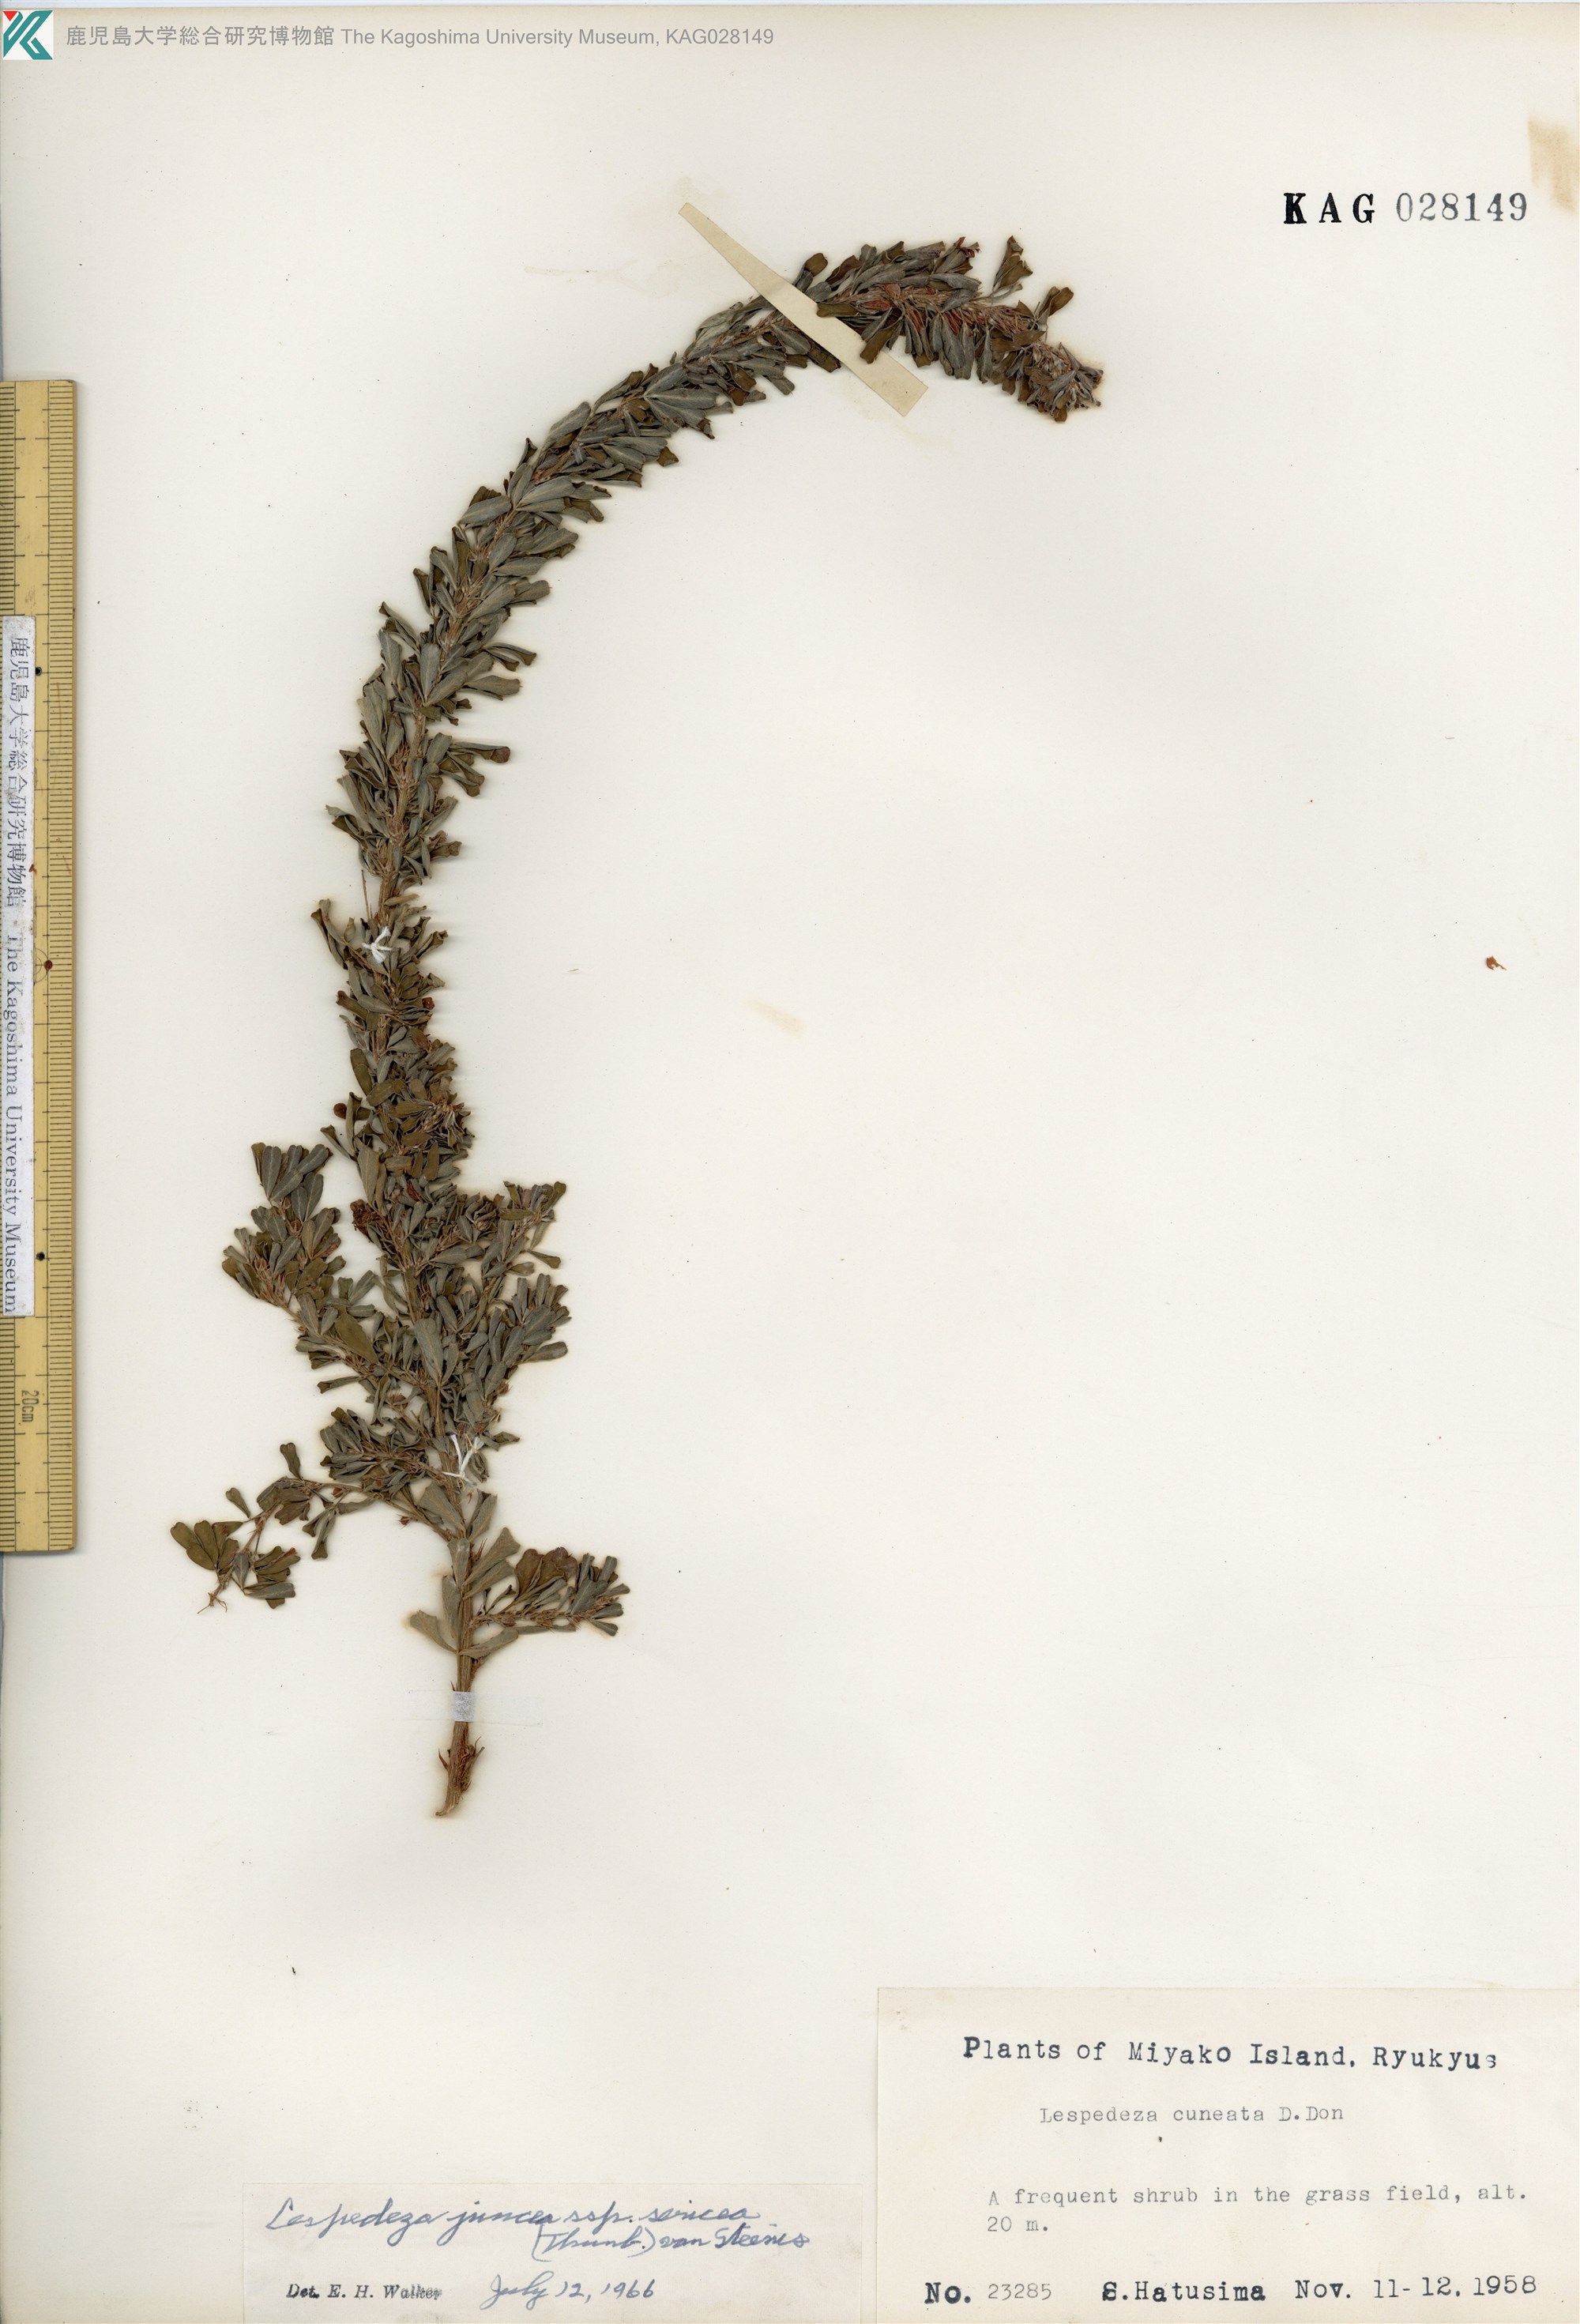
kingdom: Plantae
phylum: Tracheophyta
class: Magnoliopsida
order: Fabales
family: Fabaceae
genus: Lespedeza
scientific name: Lespedeza cuneata
